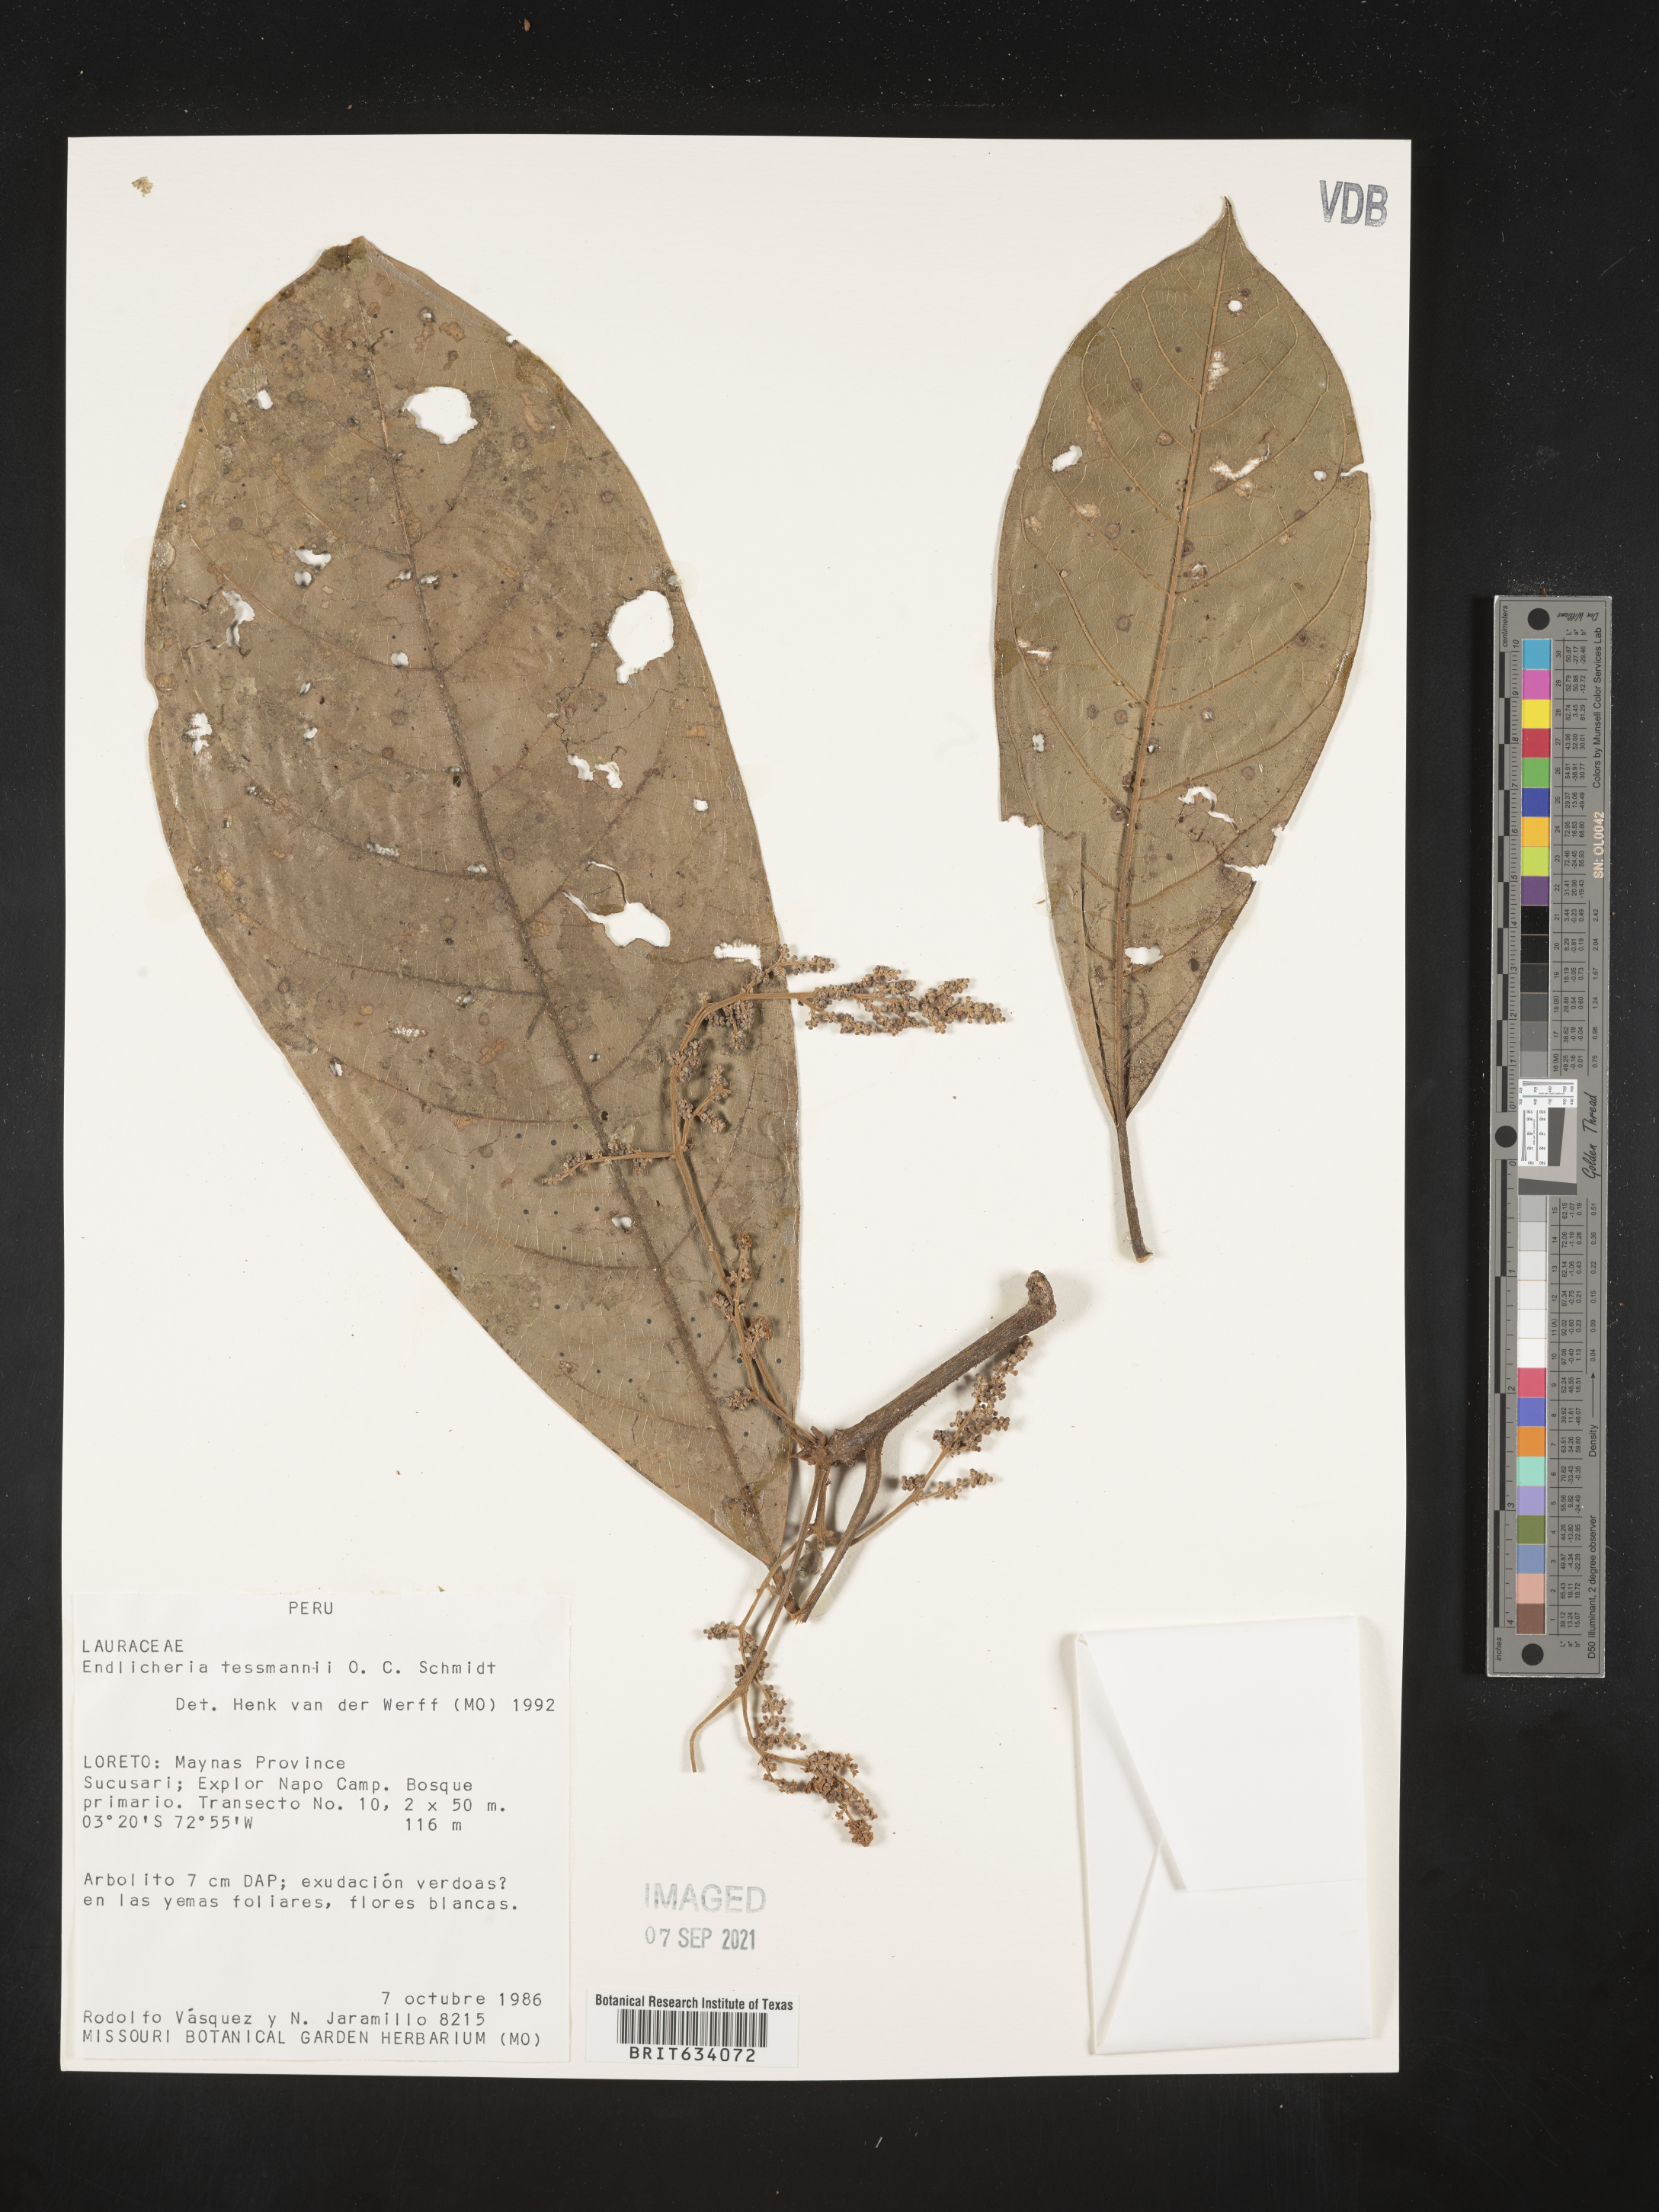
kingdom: Plantae
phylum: Tracheophyta
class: Magnoliopsida
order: Laurales
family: Lauraceae
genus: Endlicheria
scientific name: Endlicheria
